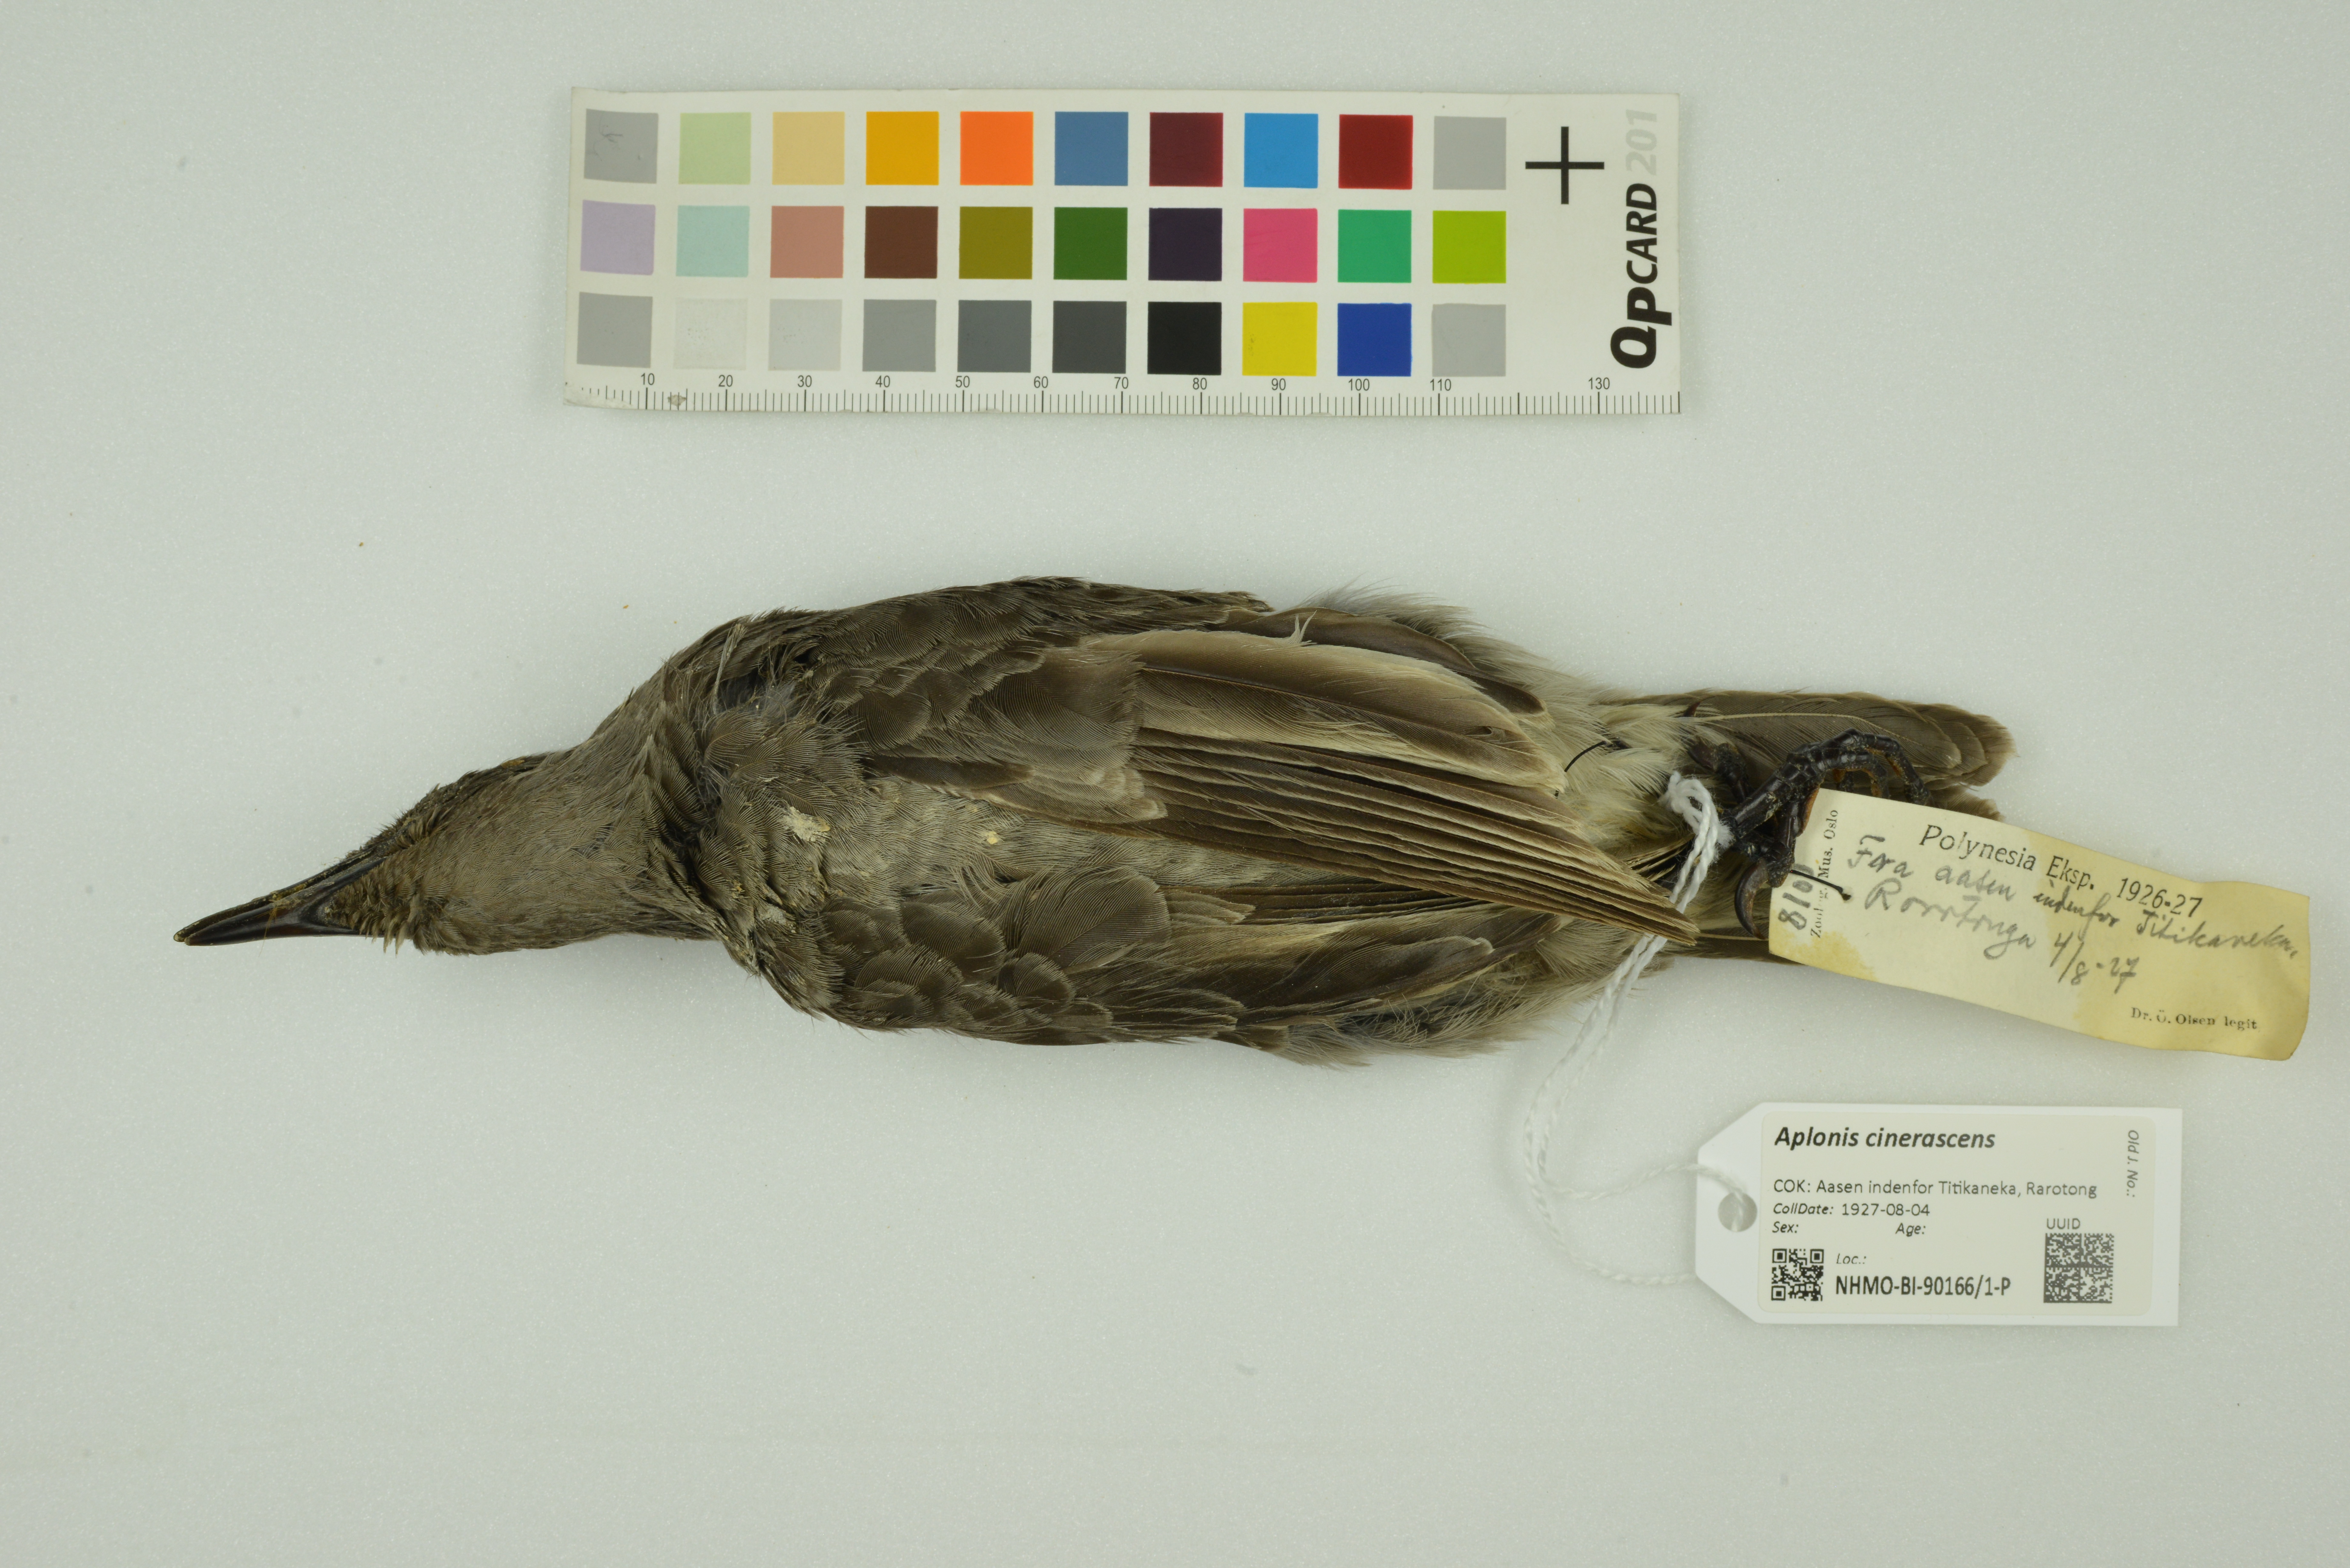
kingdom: Animalia
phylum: Chordata
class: Aves
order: Passeriformes
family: Sturnidae
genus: Aplonis
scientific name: Aplonis cinerascens
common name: Rarotonga starling
